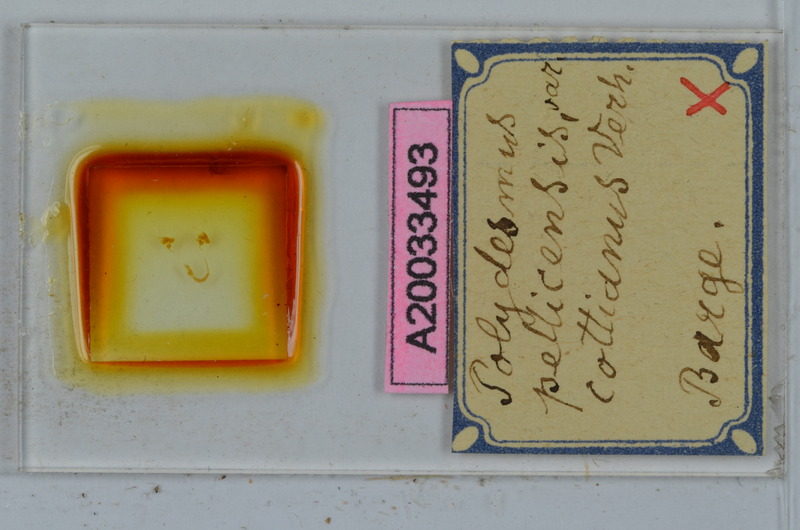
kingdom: Animalia
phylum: Arthropoda
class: Diplopoda
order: Polydesmida
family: Polydesmidae
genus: Polydesmus
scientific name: Polydesmus brevimanus
